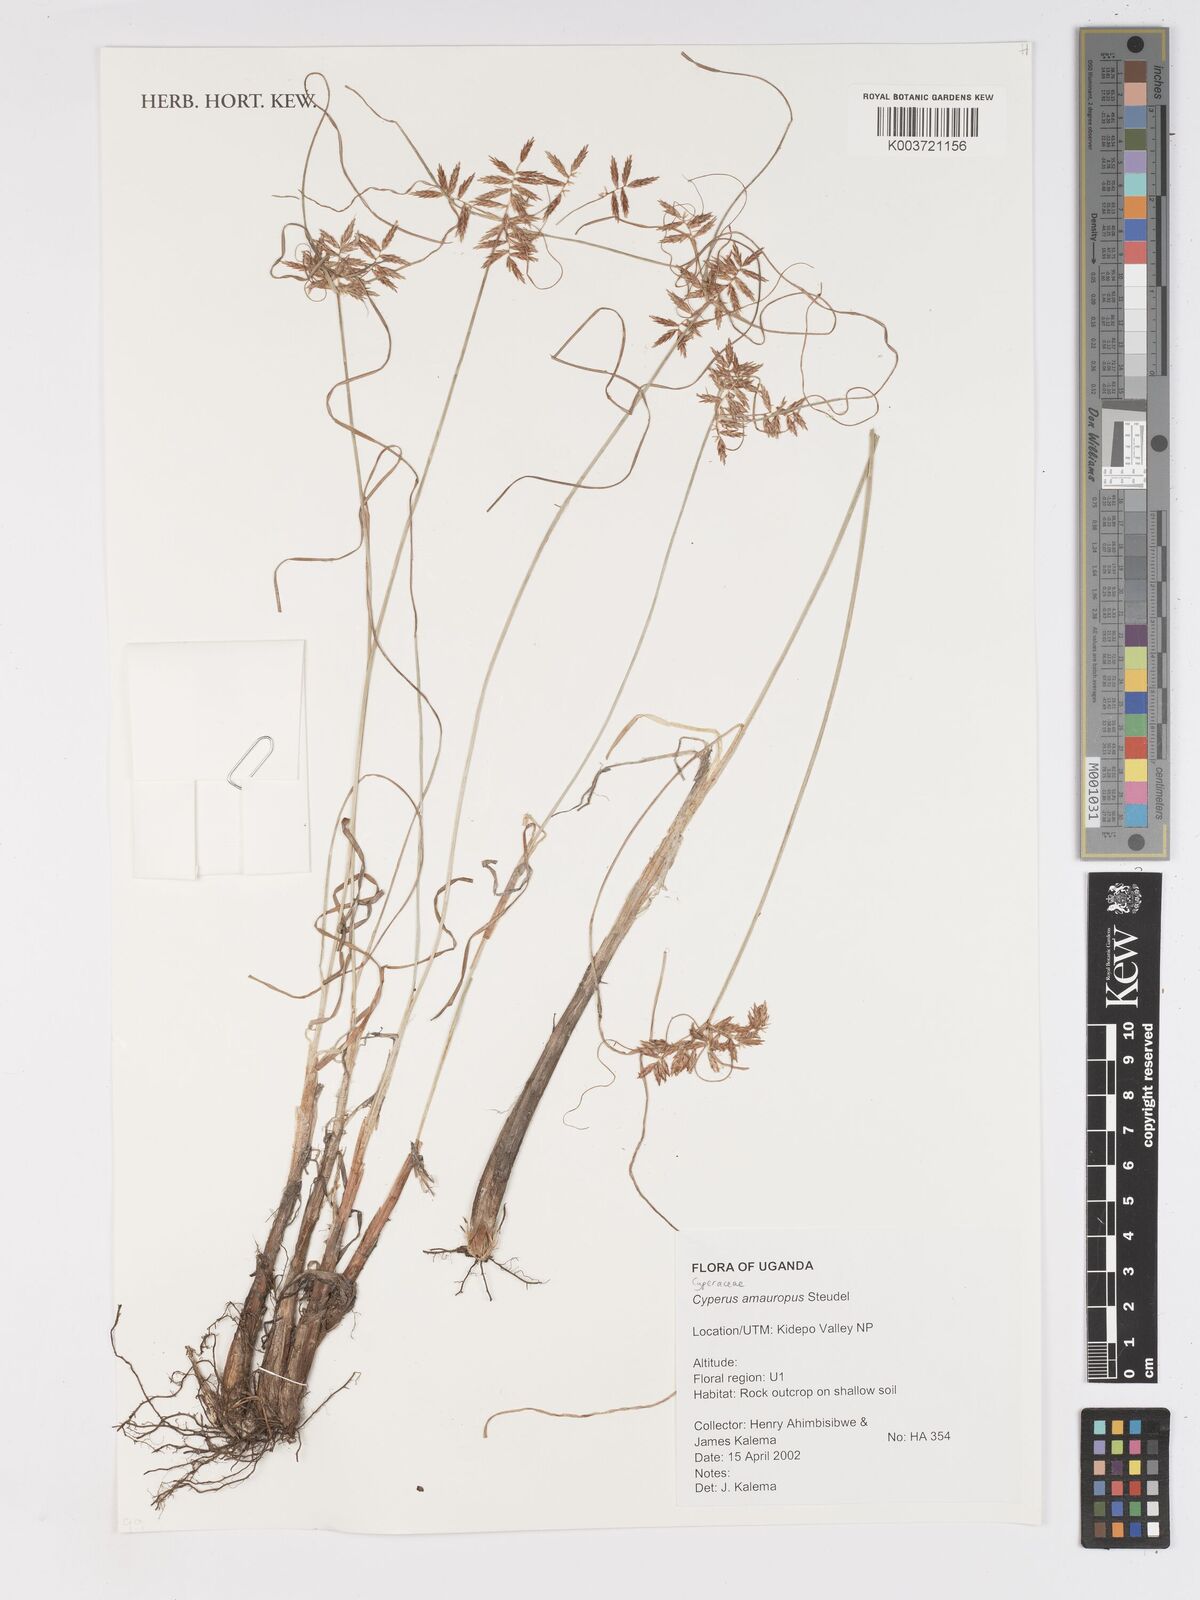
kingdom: Plantae
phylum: Tracheophyta
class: Liliopsida
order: Poales
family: Cyperaceae
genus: Cyperus
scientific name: Cyperus amauropus
